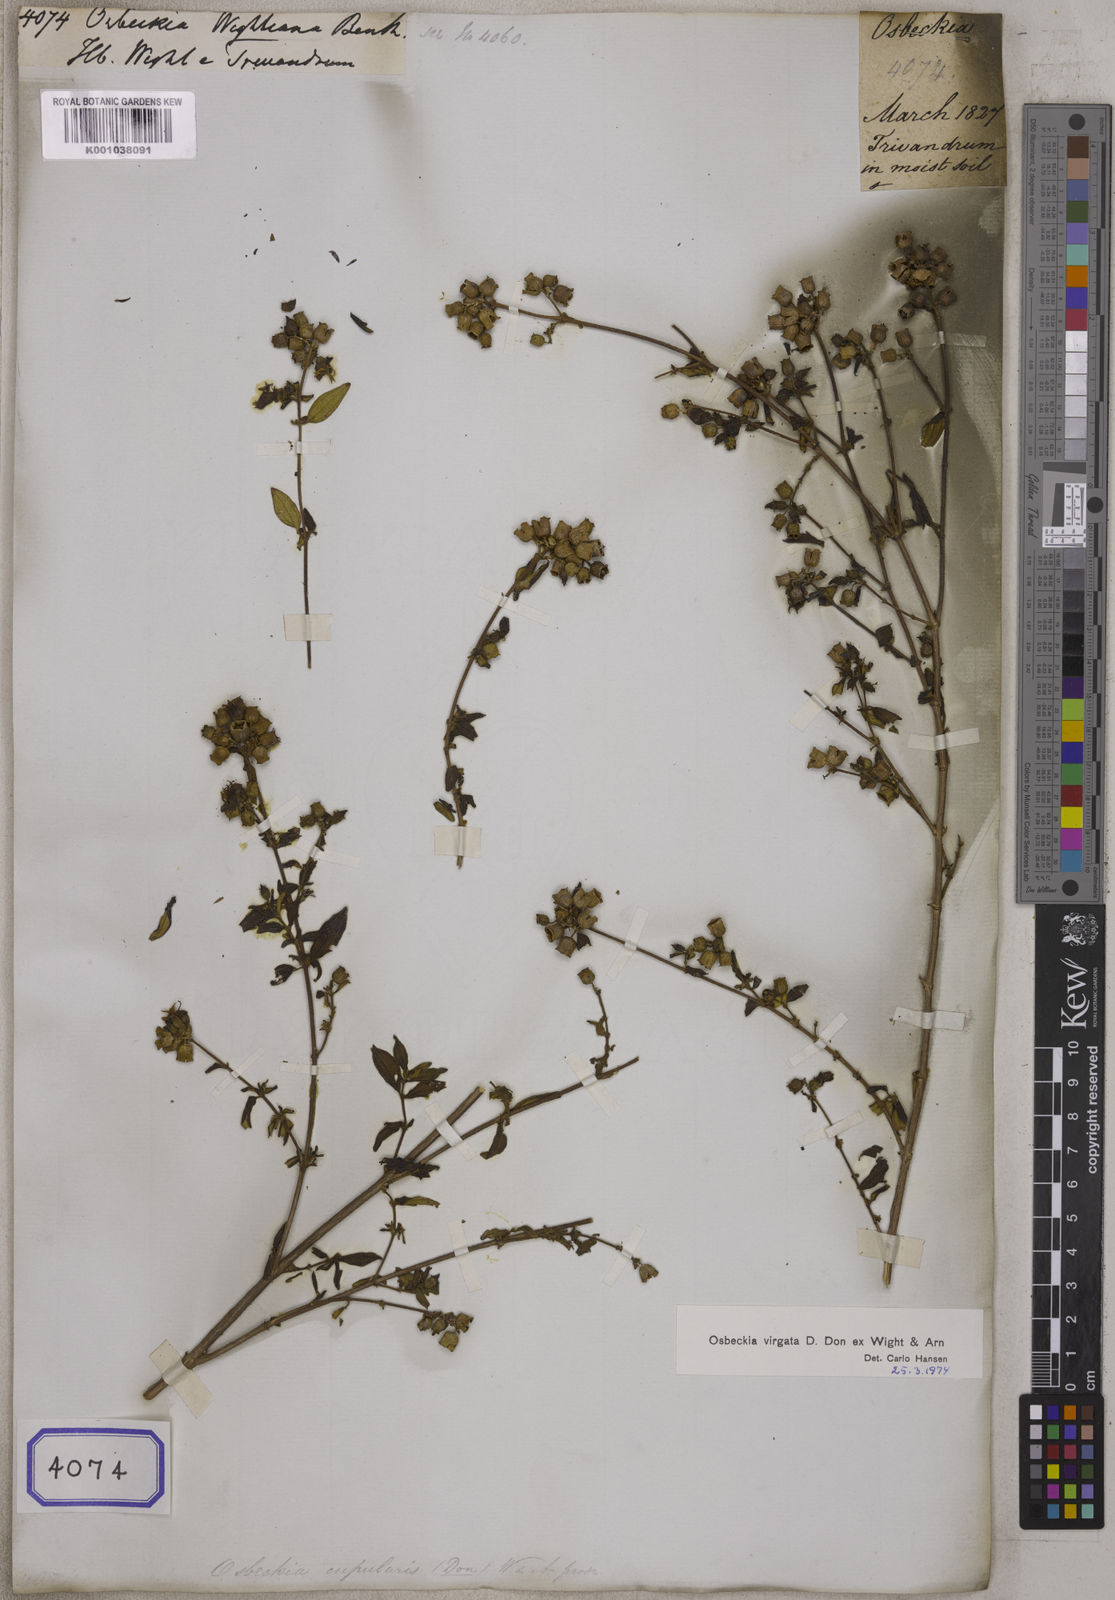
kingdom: Plantae
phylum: Tracheophyta
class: Magnoliopsida
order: Myrtales
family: Melastomataceae
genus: Osbeckia
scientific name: Osbeckia
